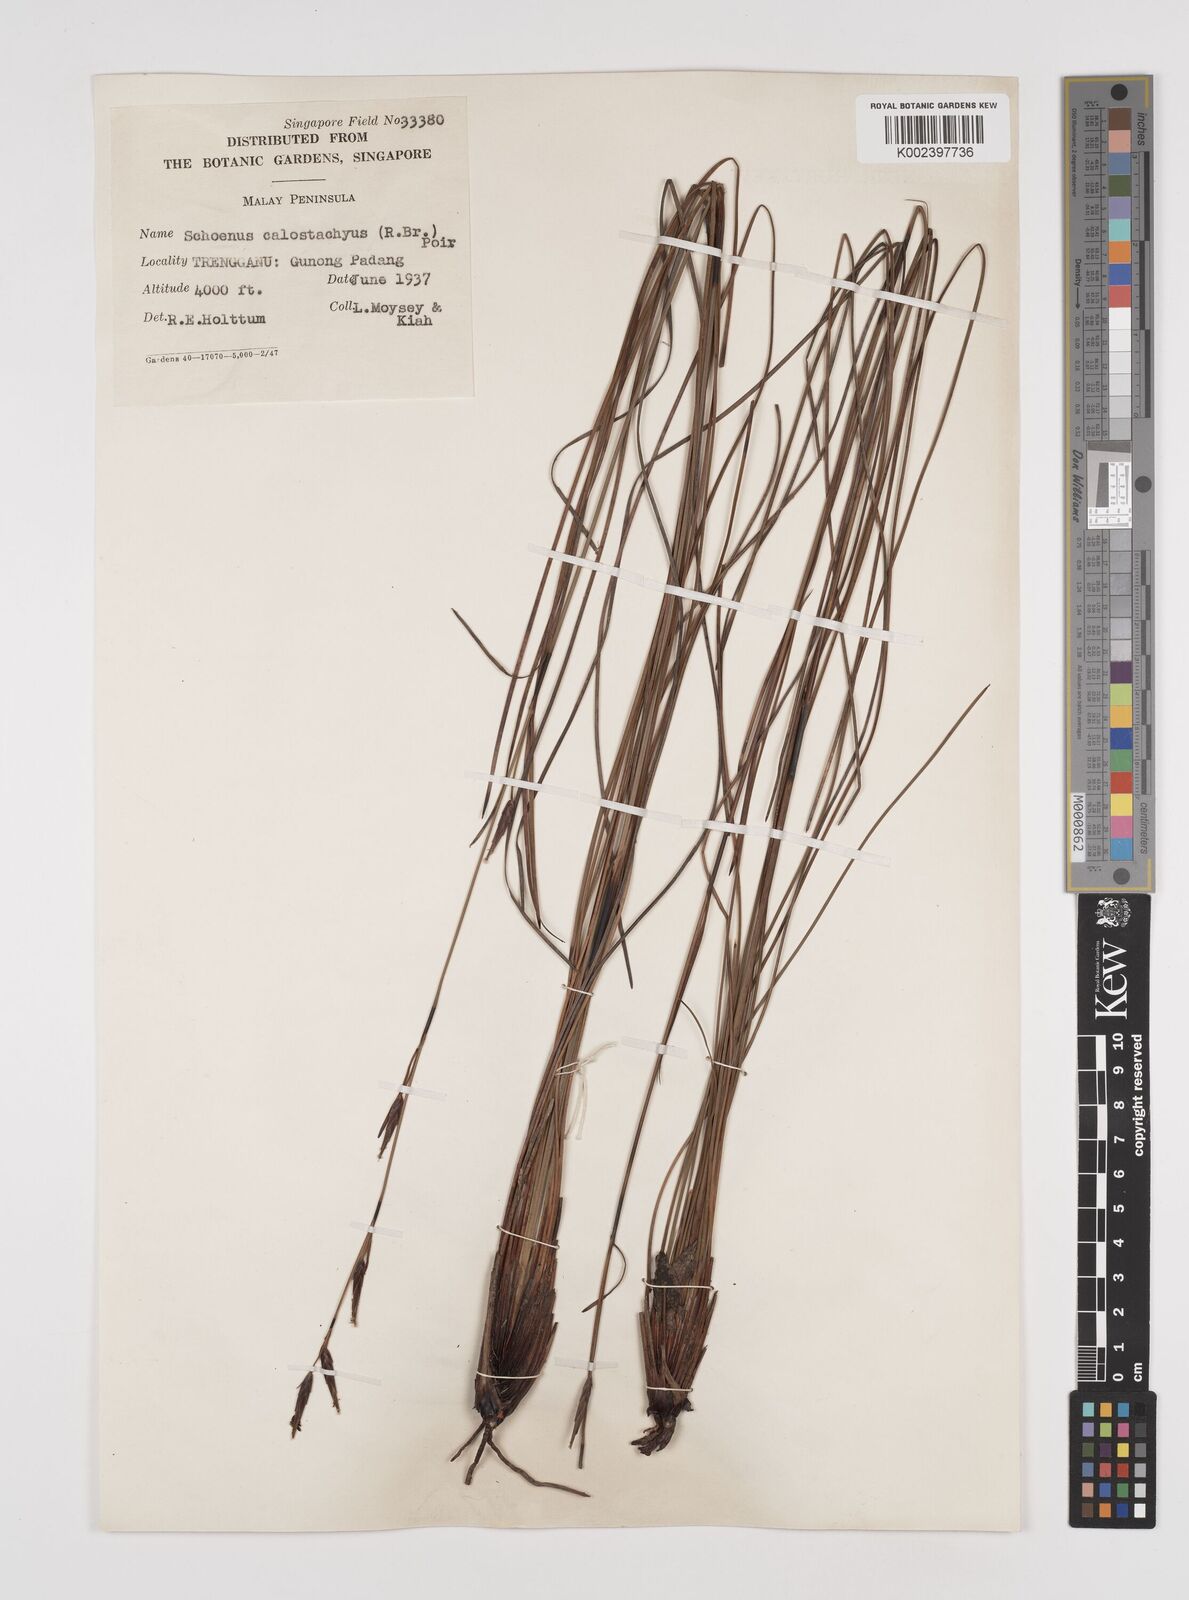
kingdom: Plantae
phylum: Tracheophyta
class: Liliopsida
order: Poales
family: Cyperaceae
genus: Schoenus
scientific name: Schoenus calostachyus
